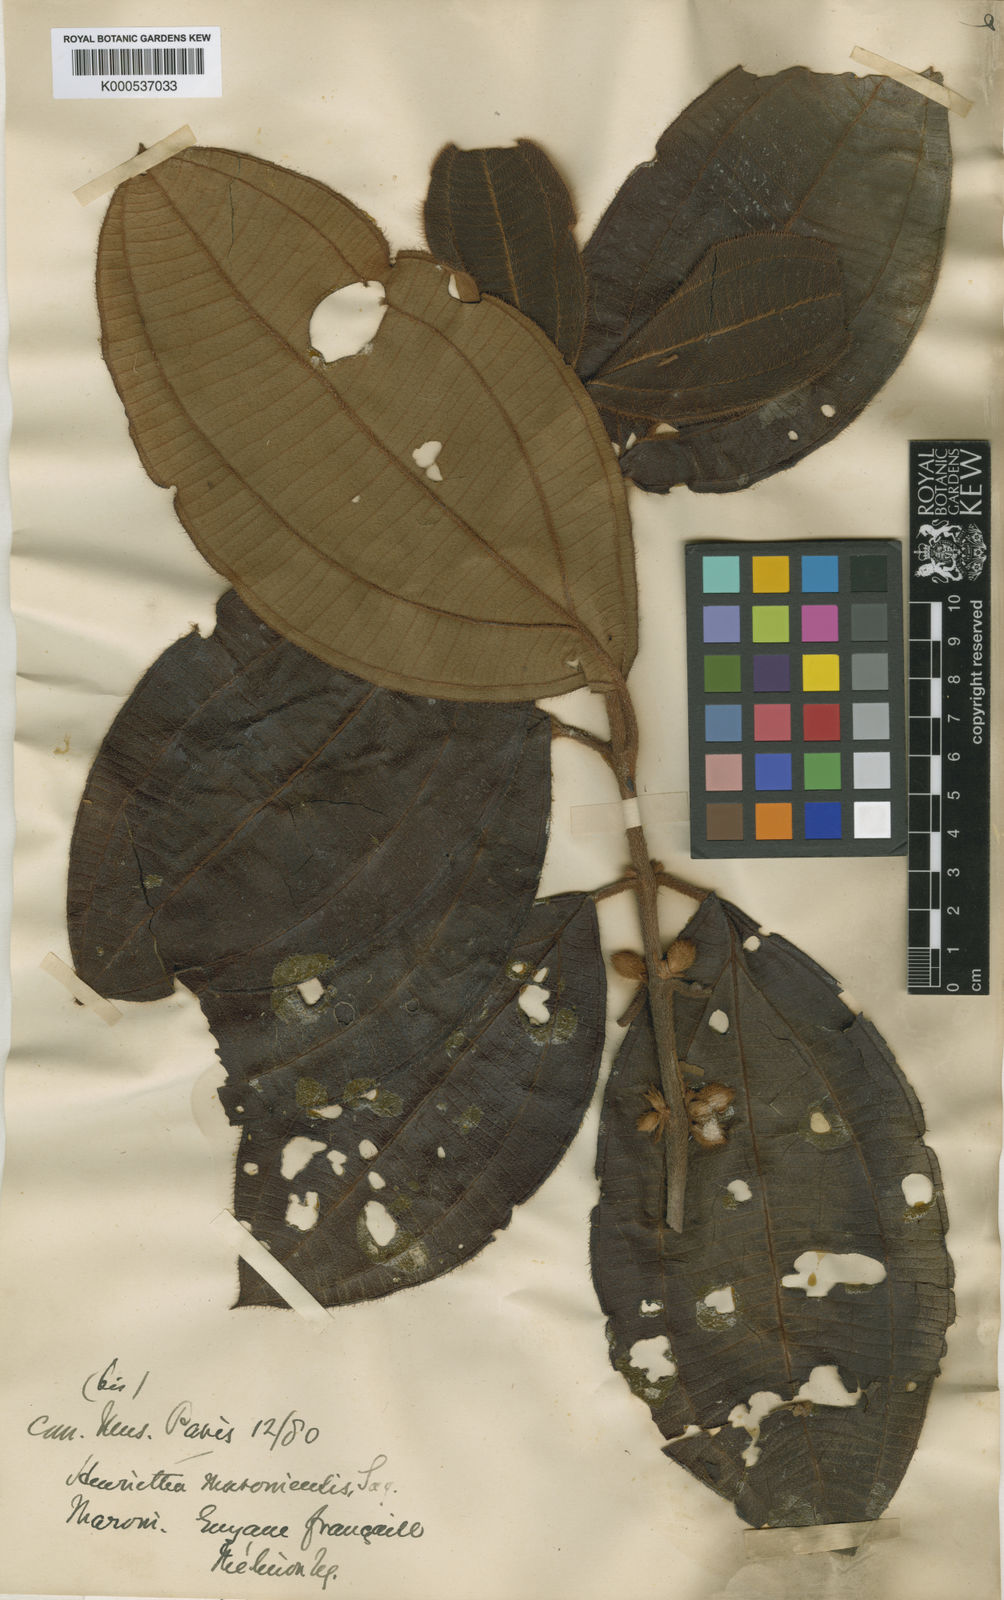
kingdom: Plantae
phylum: Tracheophyta
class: Magnoliopsida
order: Myrtales
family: Melastomataceae
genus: Henriettea
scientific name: Henriettea maroniensis
